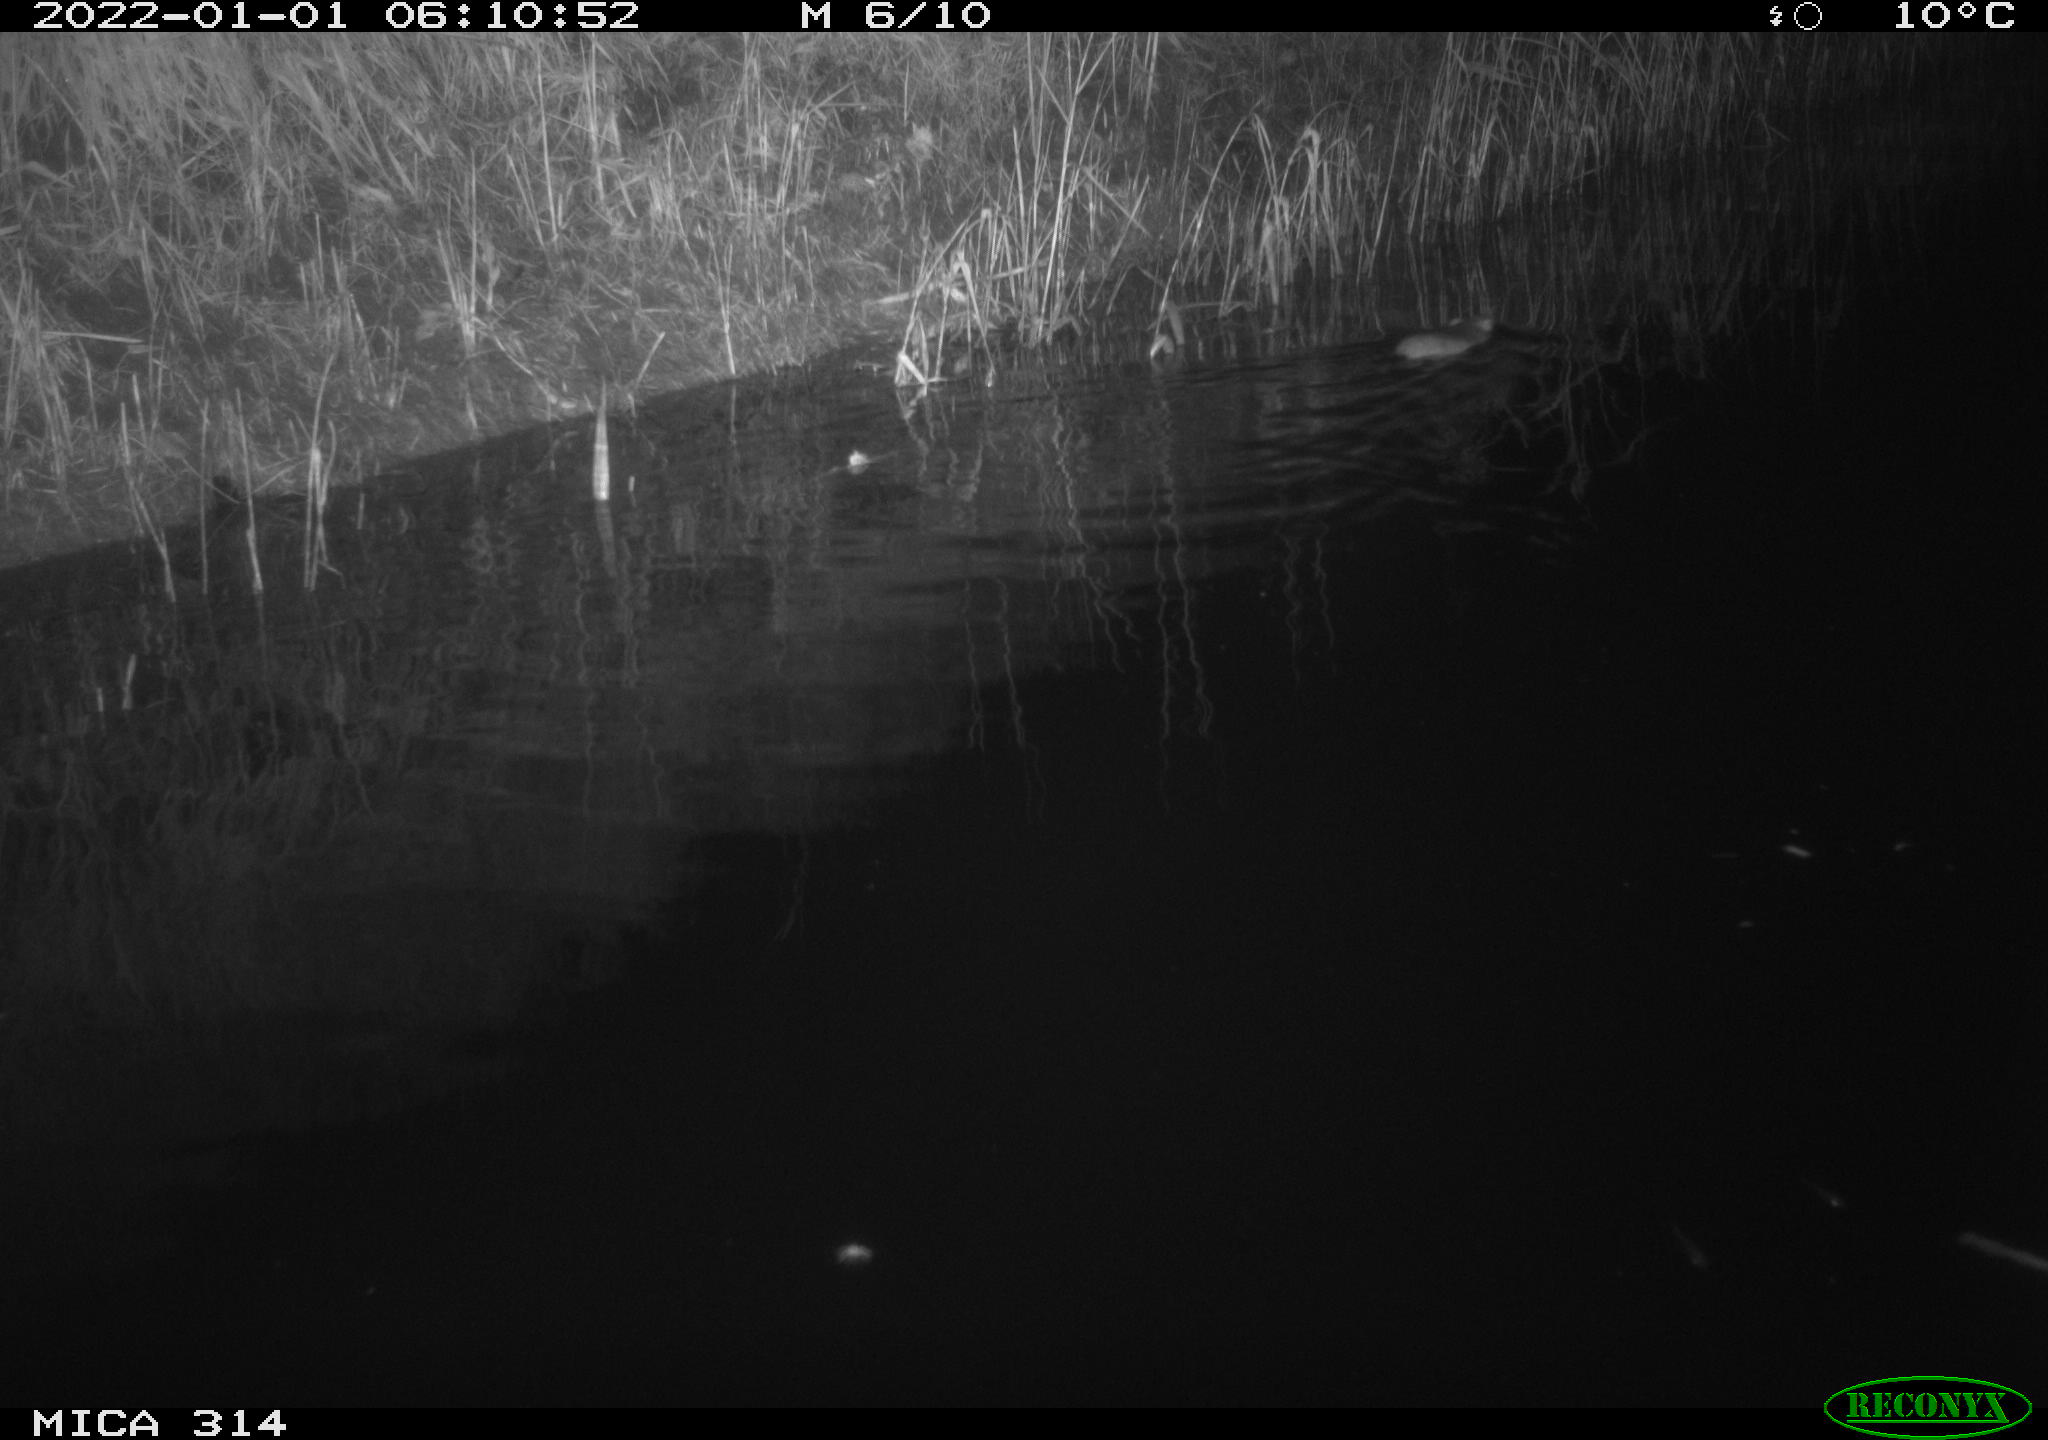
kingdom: Animalia
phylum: Chordata
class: Mammalia
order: Rodentia
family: Muridae
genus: Rattus
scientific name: Rattus norvegicus
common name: Brown rat
